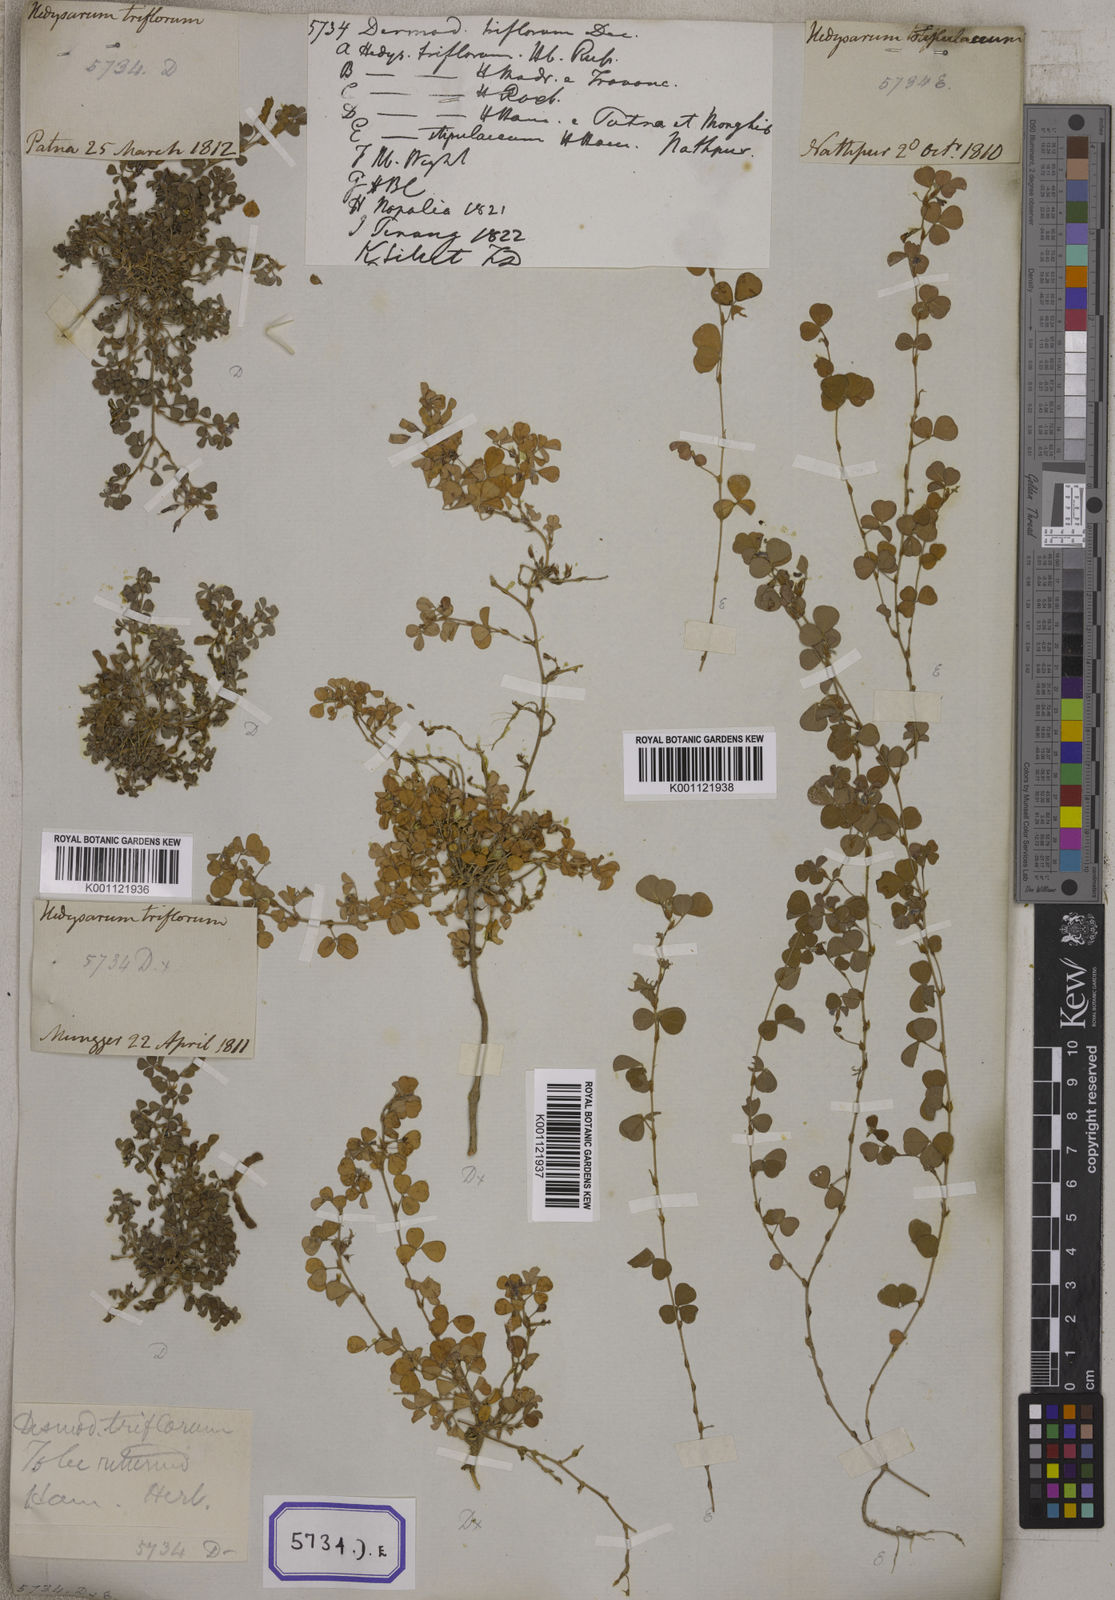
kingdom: Plantae
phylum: Tracheophyta
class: Magnoliopsida
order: Fabales
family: Fabaceae
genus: Desmodium
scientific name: Desmodium
